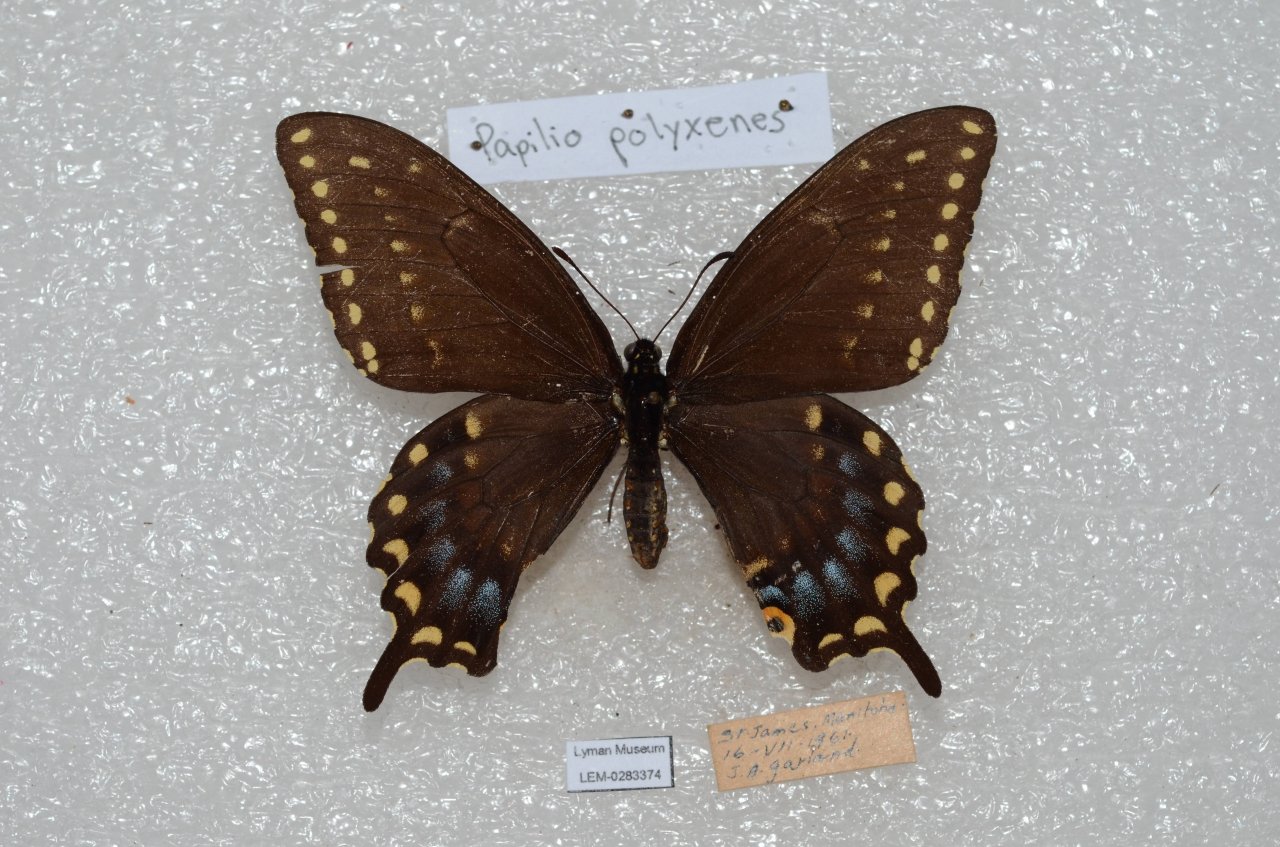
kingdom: Animalia
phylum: Arthropoda
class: Insecta
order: Lepidoptera
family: Papilionidae
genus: Papilio
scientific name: Papilio polyxenes
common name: Black Swallowtail
